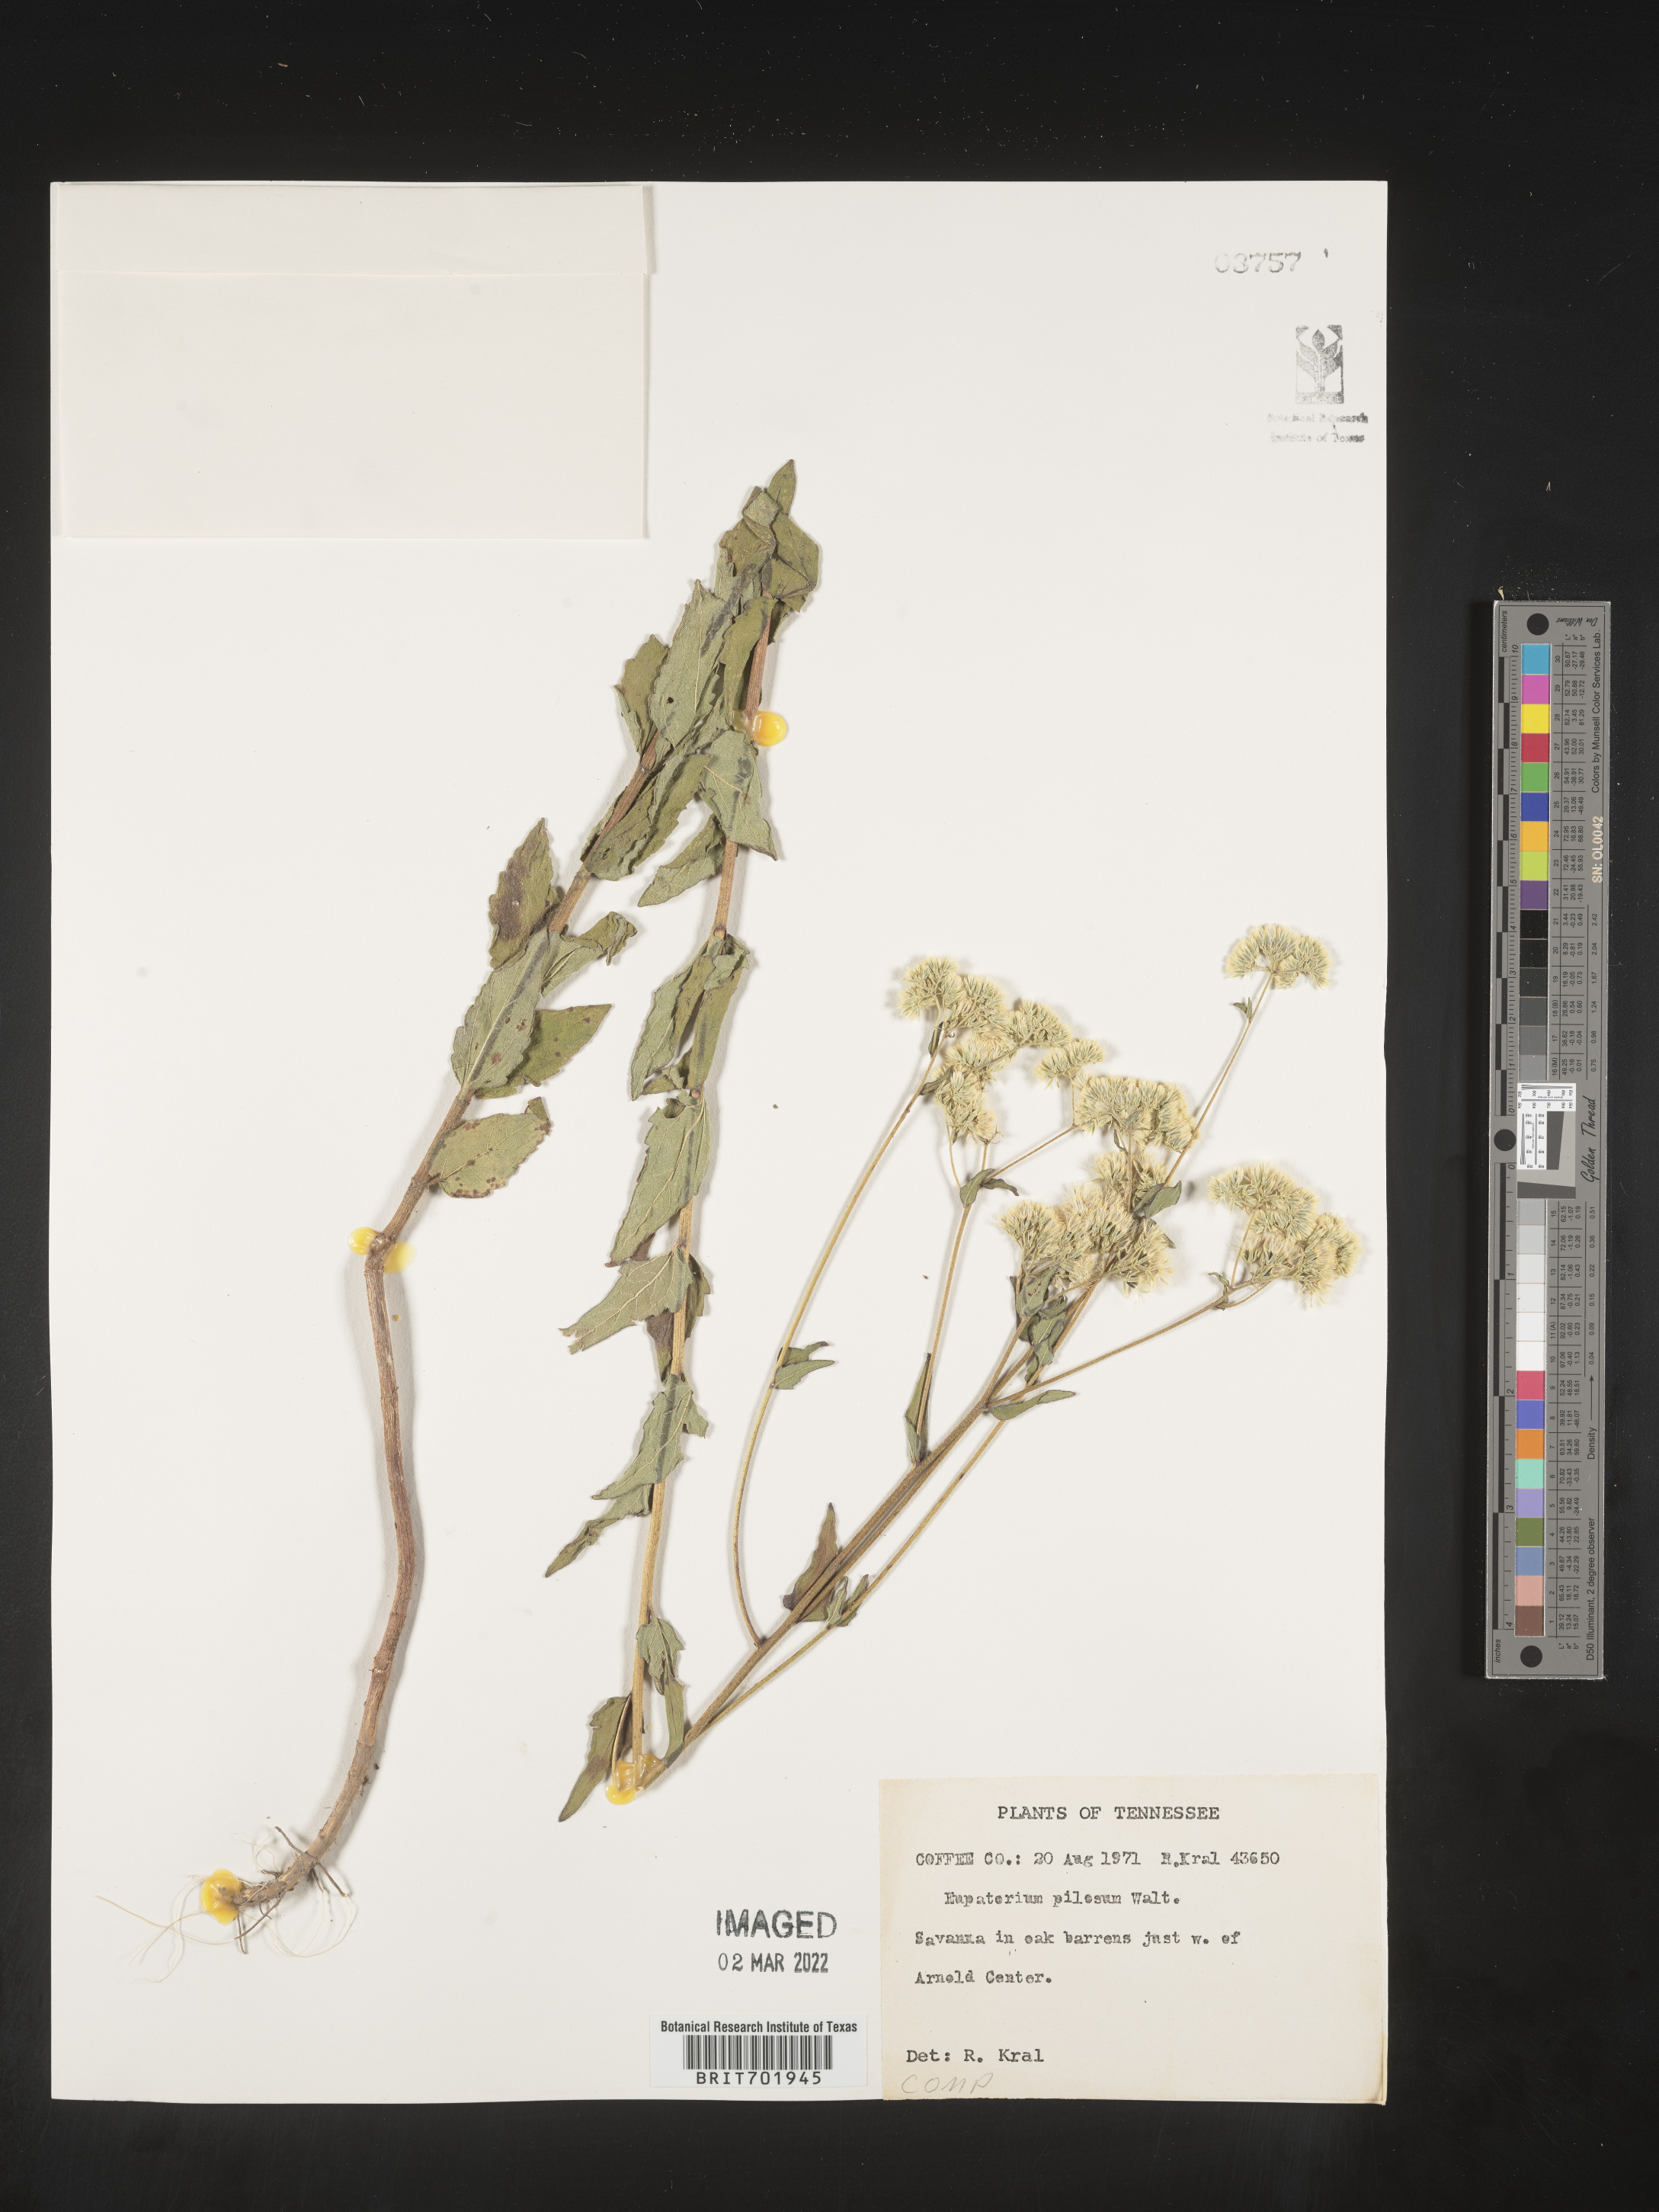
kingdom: Plantae
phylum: Tracheophyta
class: Magnoliopsida
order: Asterales
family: Asteraceae
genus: Eupatorium
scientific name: Eupatorium pilosum
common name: Rough boneset
